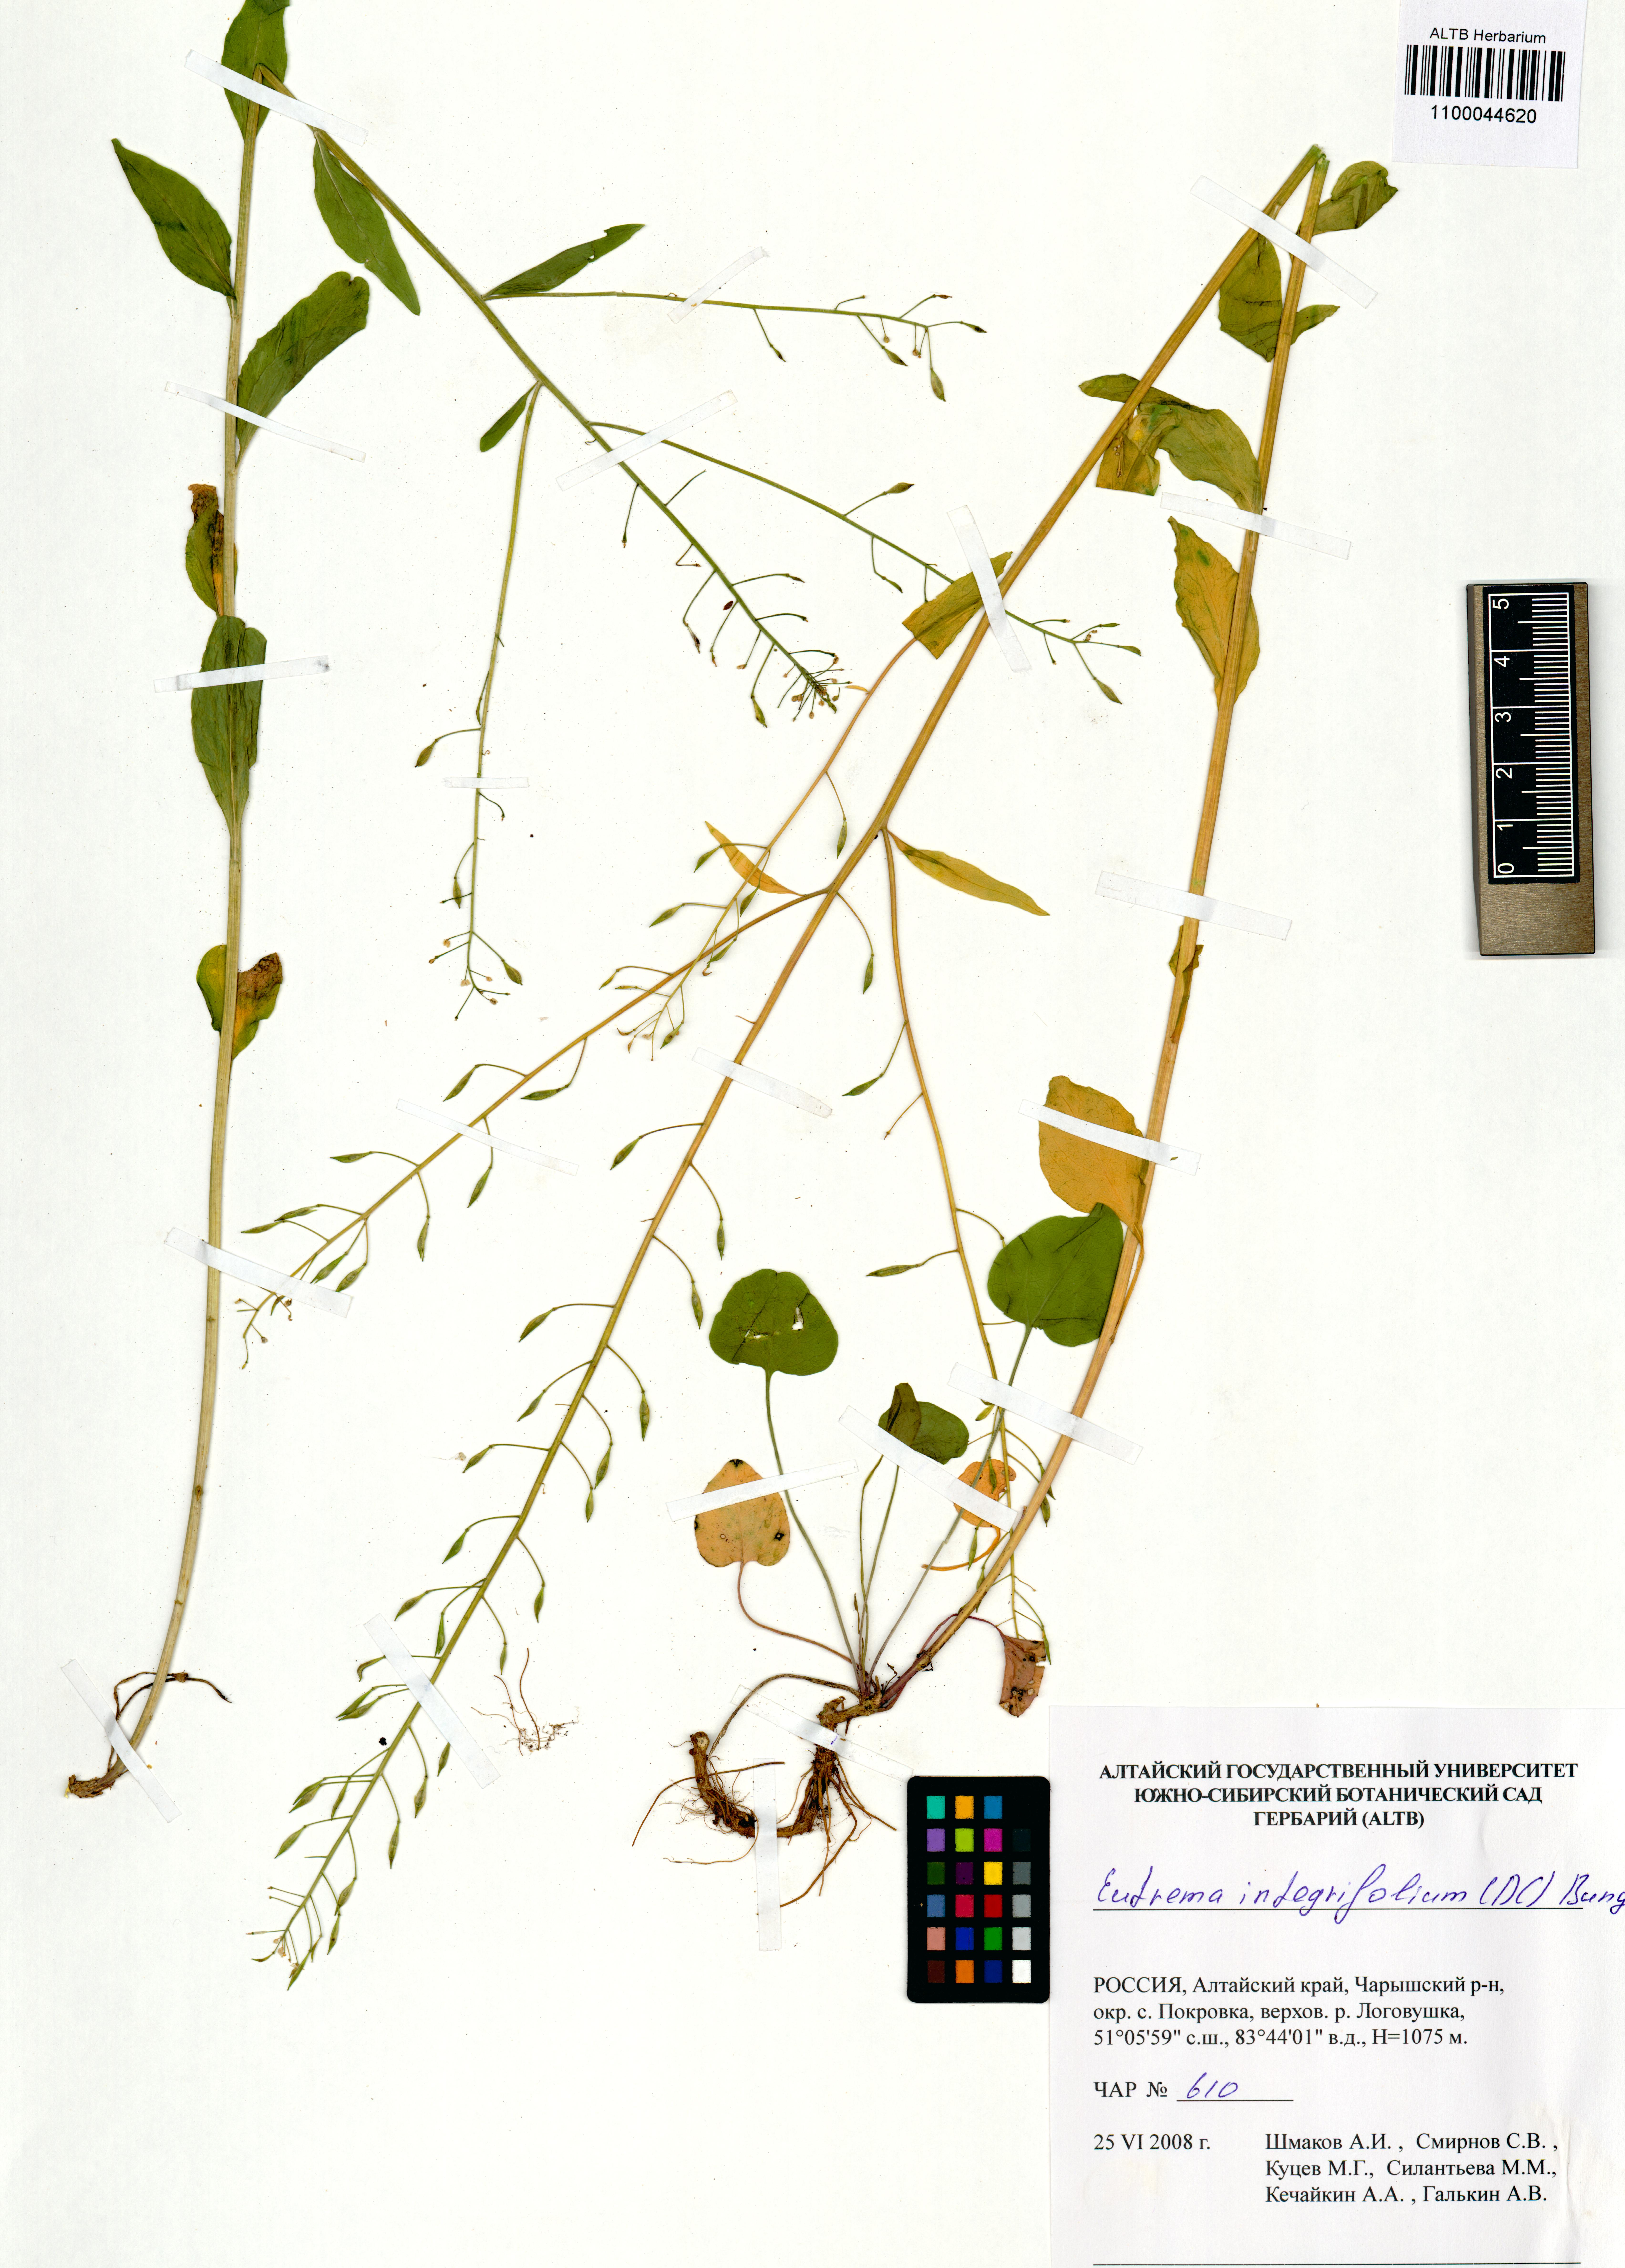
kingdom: Plantae
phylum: Tracheophyta
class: Magnoliopsida
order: Brassicales
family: Brassicaceae
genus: Eutrema
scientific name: Eutrema integrifolium
